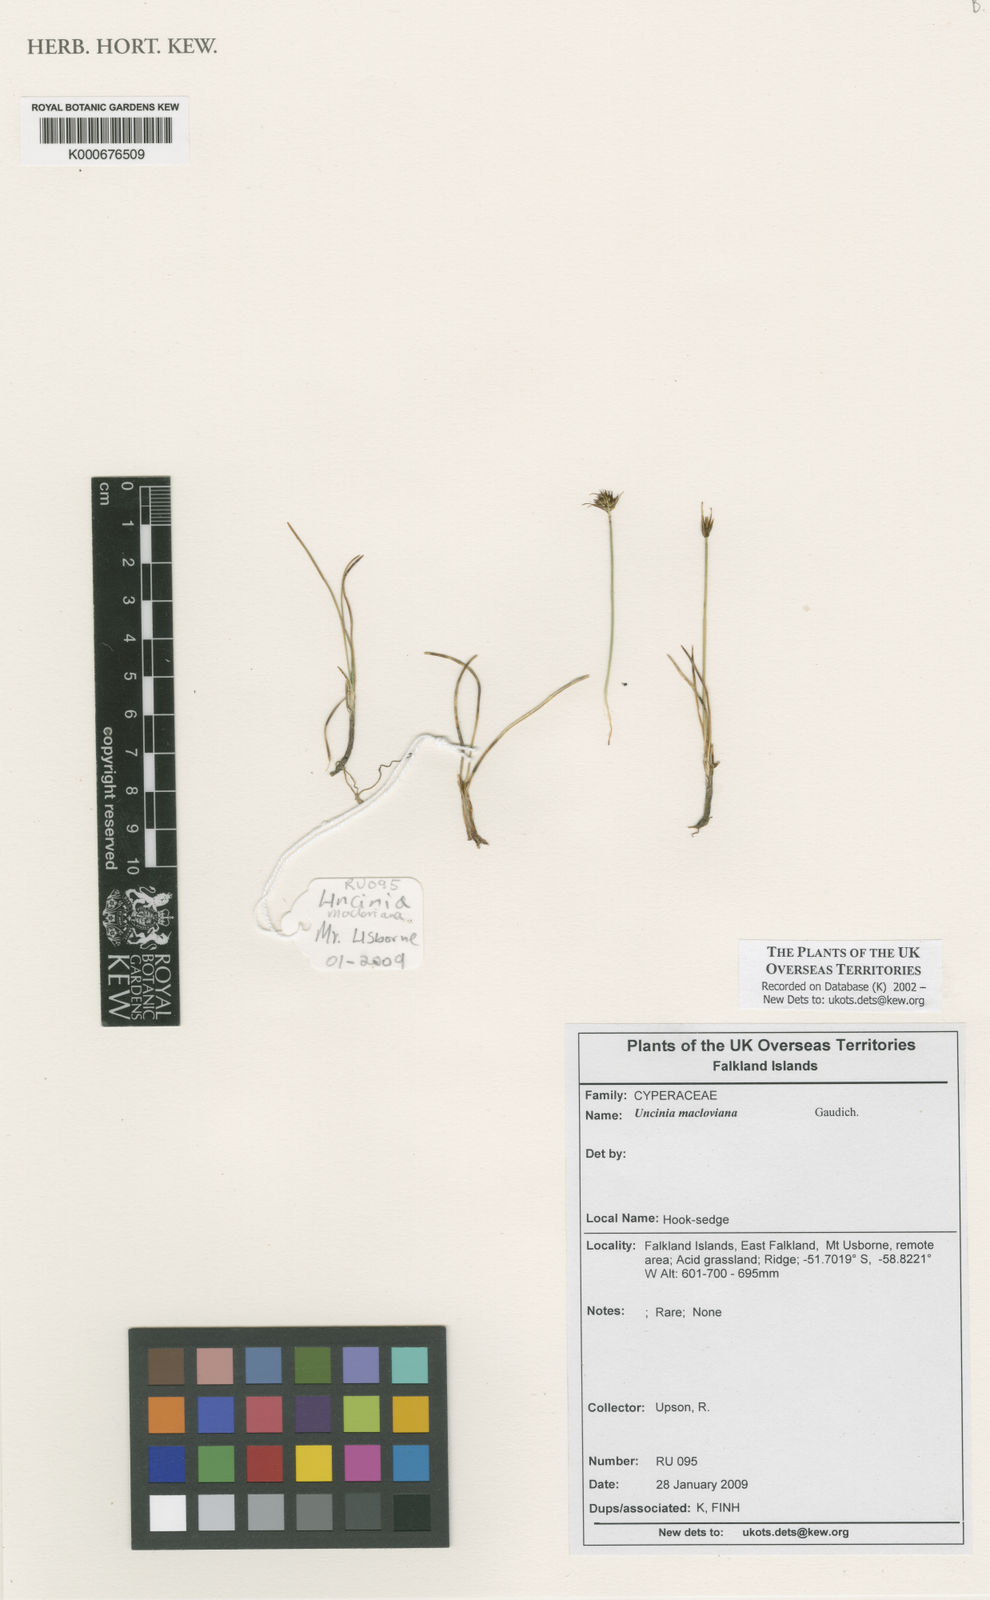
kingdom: Plantae
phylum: Tracheophyta
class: Liliopsida
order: Poales
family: Cyperaceae
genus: Carex
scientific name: Carex
